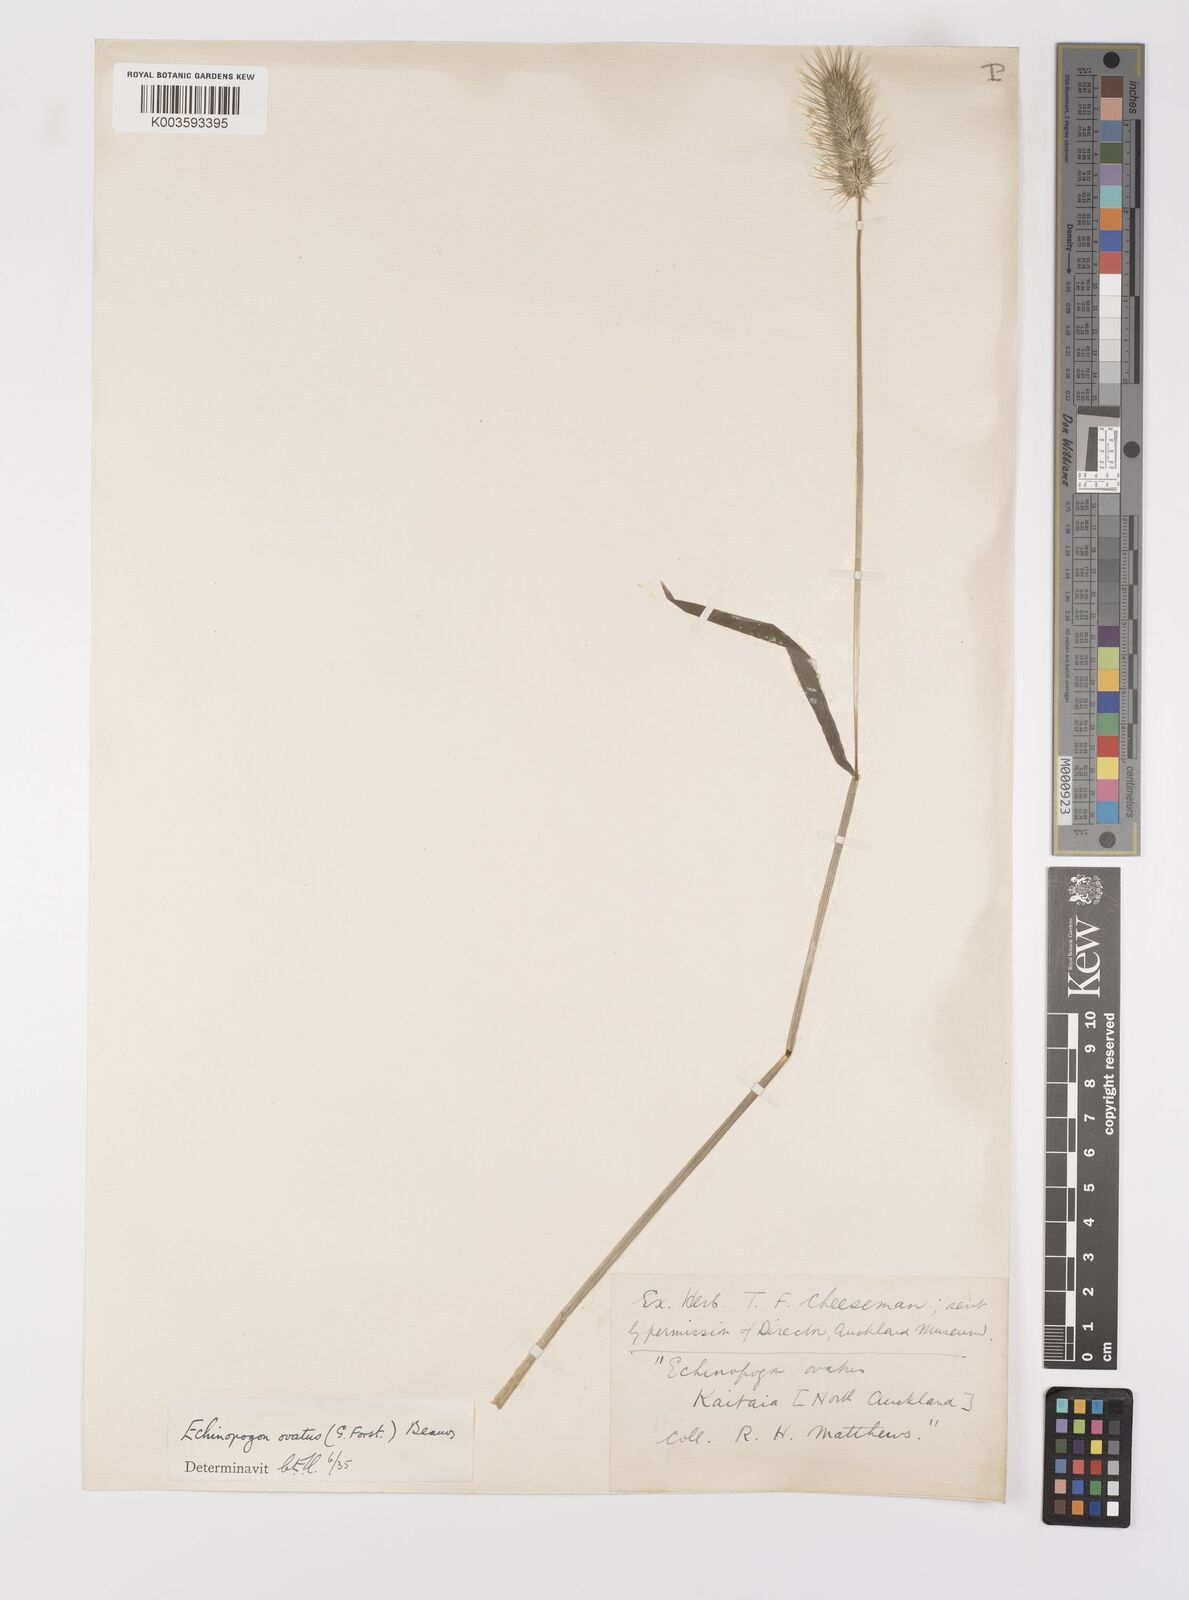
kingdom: Plantae
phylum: Tracheophyta
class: Liliopsida
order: Poales
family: Poaceae
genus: Echinopogon
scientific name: Echinopogon ovatus
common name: Hedgehog-grass
